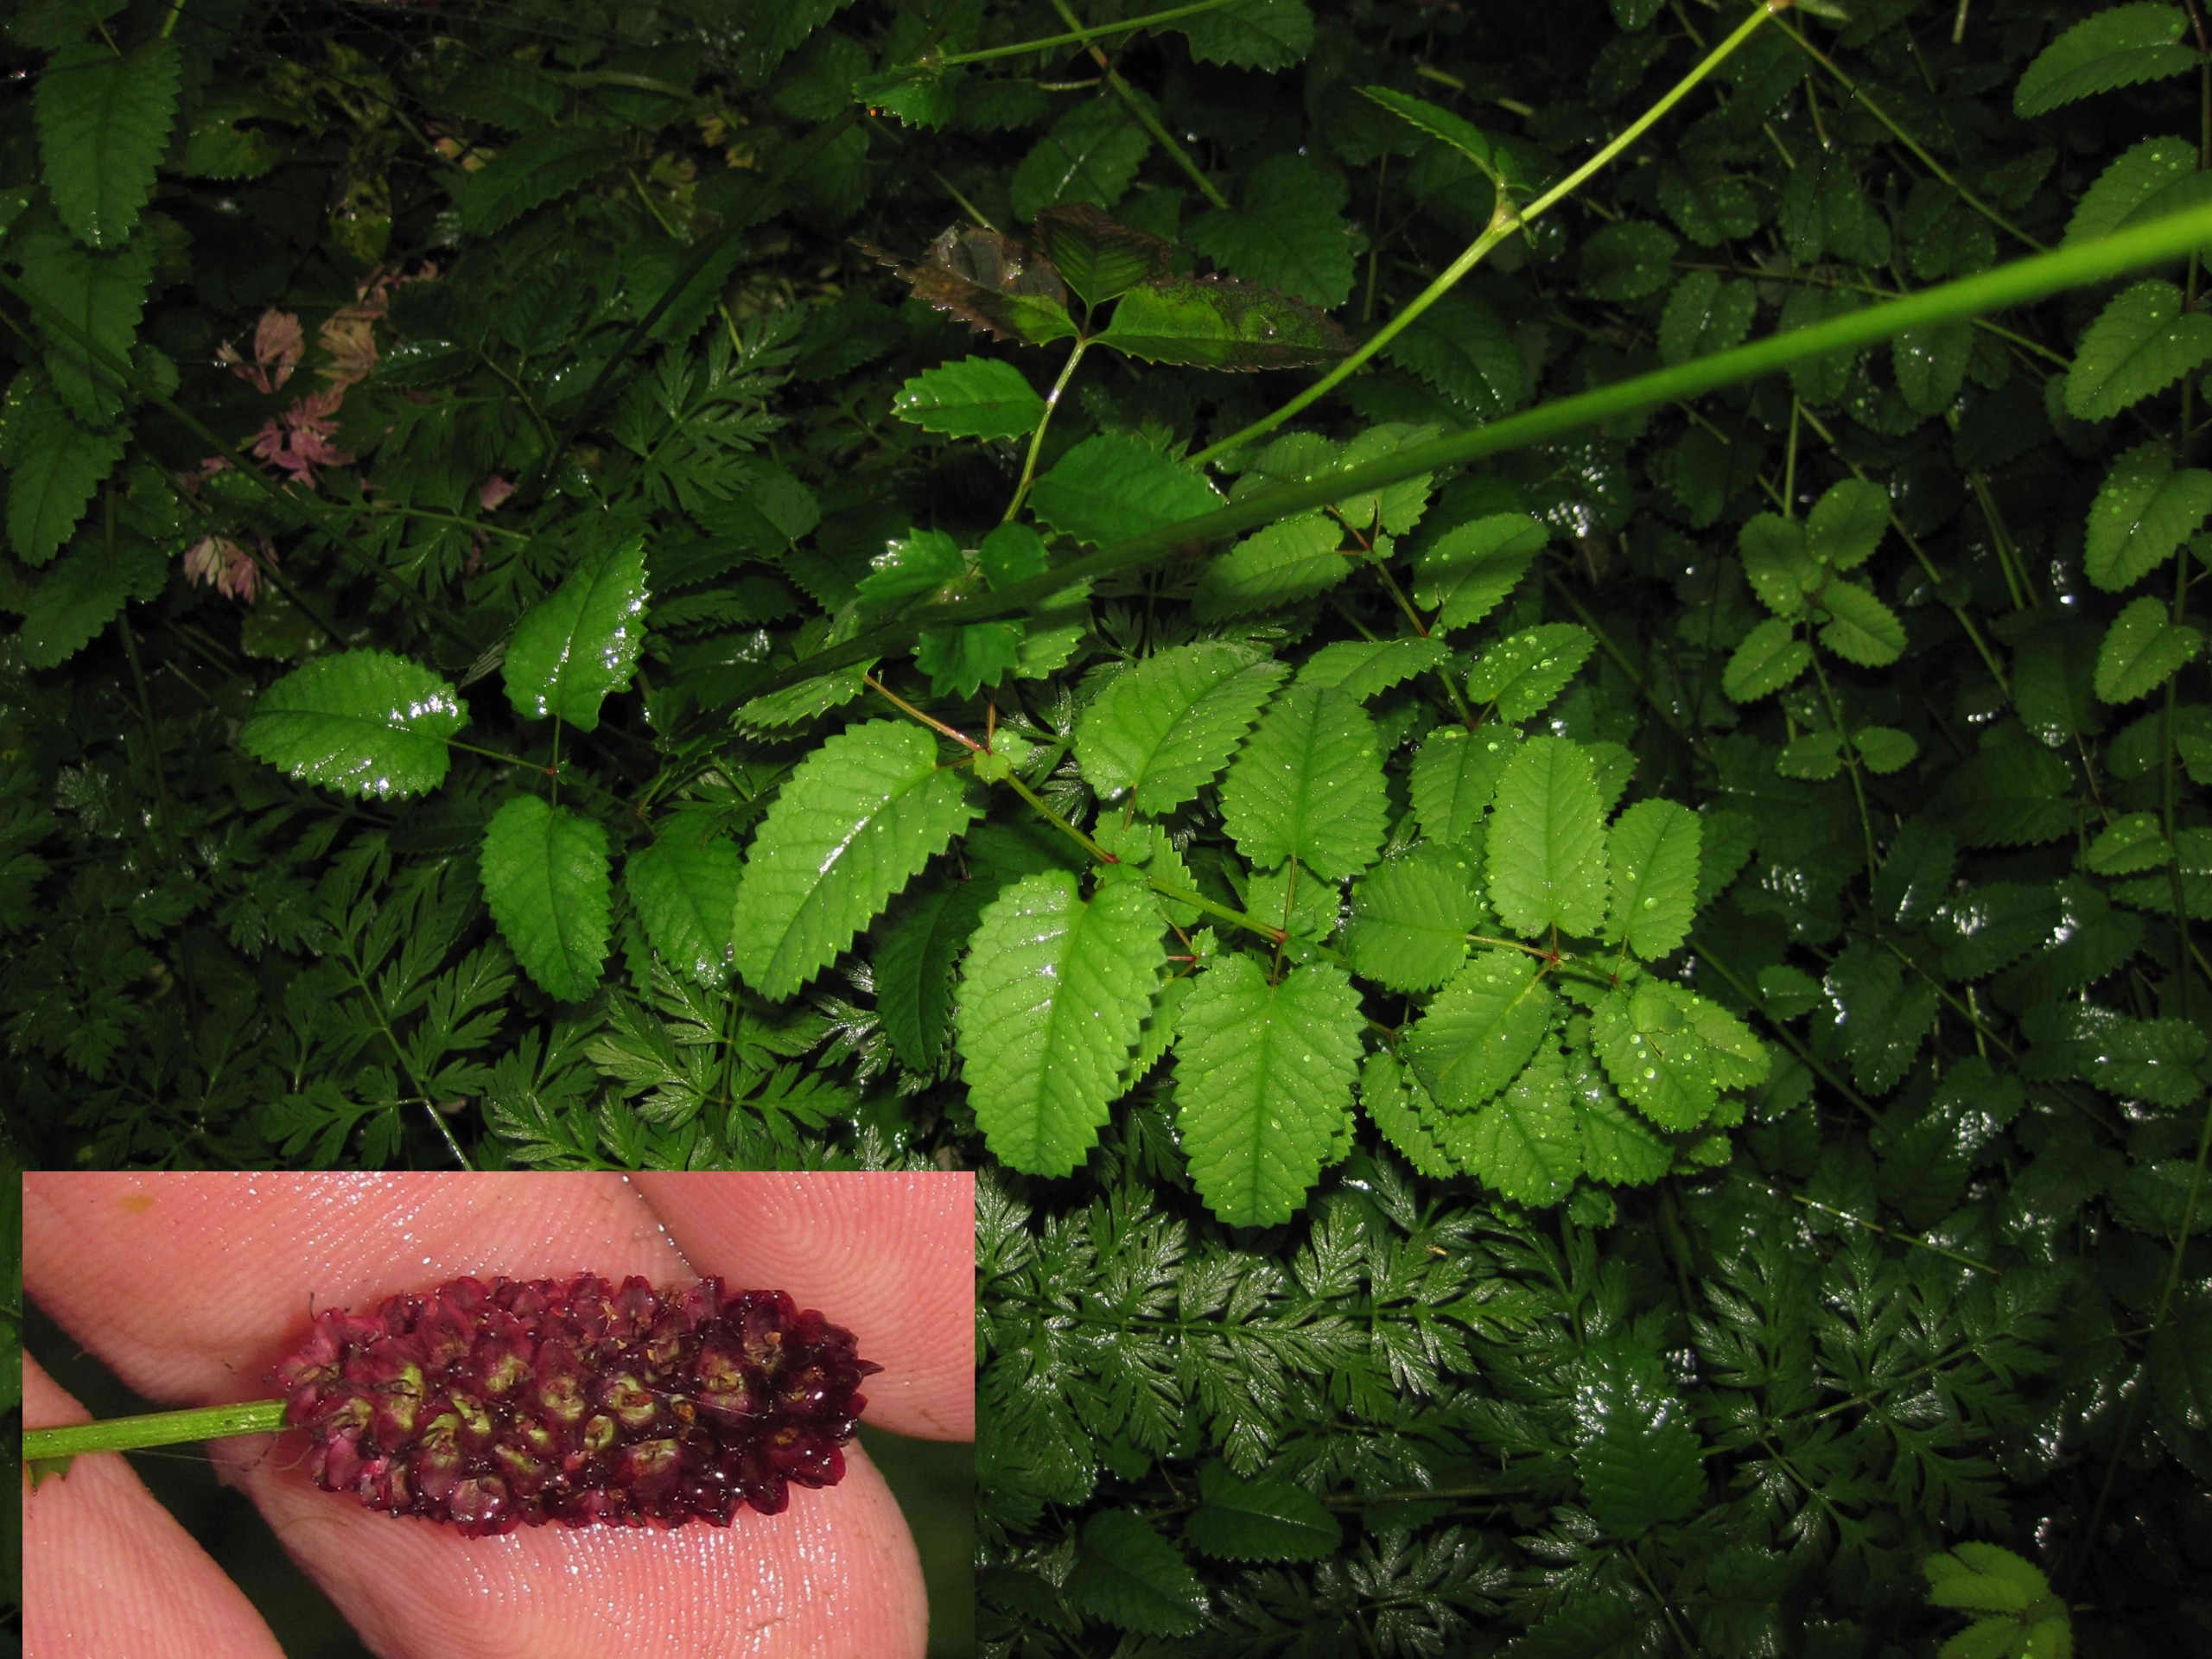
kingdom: Plantae
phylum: Tracheophyta
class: Magnoliopsida
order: Rosales
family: Rosaceae
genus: Sanguisorba
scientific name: Sanguisorba officinalis
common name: Læge-kvæsurt
